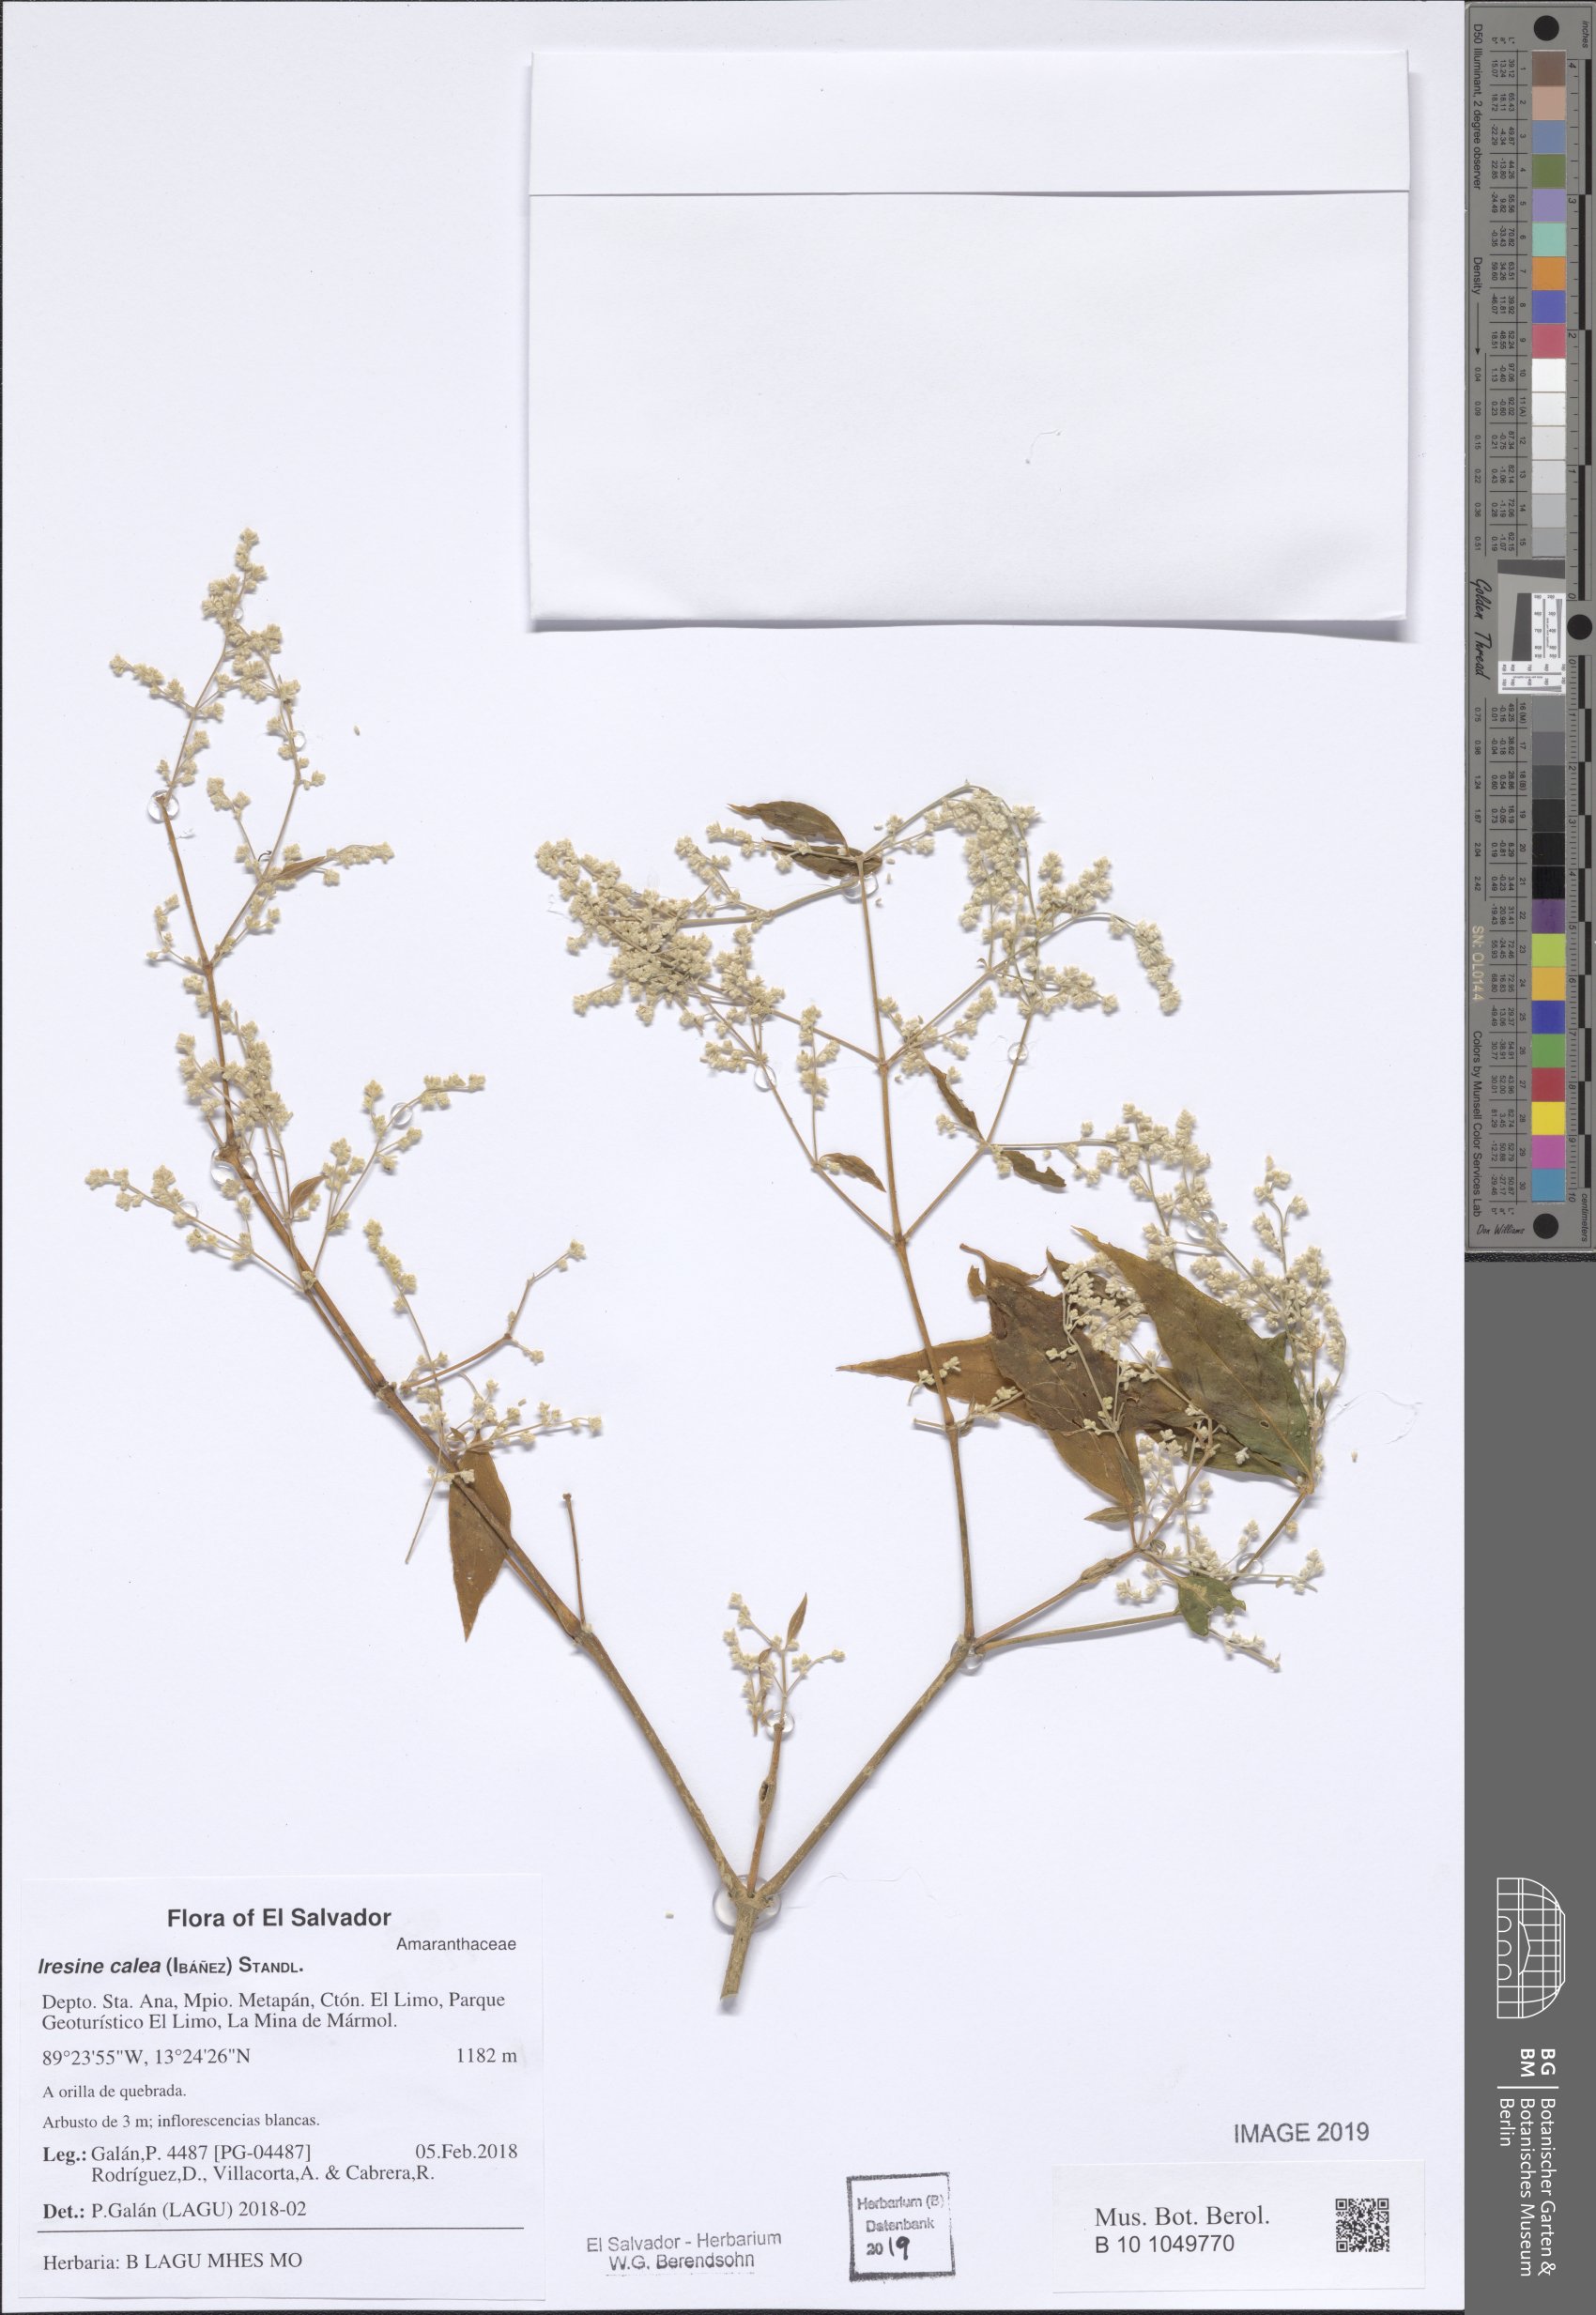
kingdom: Plantae
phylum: Tracheophyta
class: Magnoliopsida
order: Caryophyllales
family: Amaranthaceae
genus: Iresine
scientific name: Iresine latifolia
